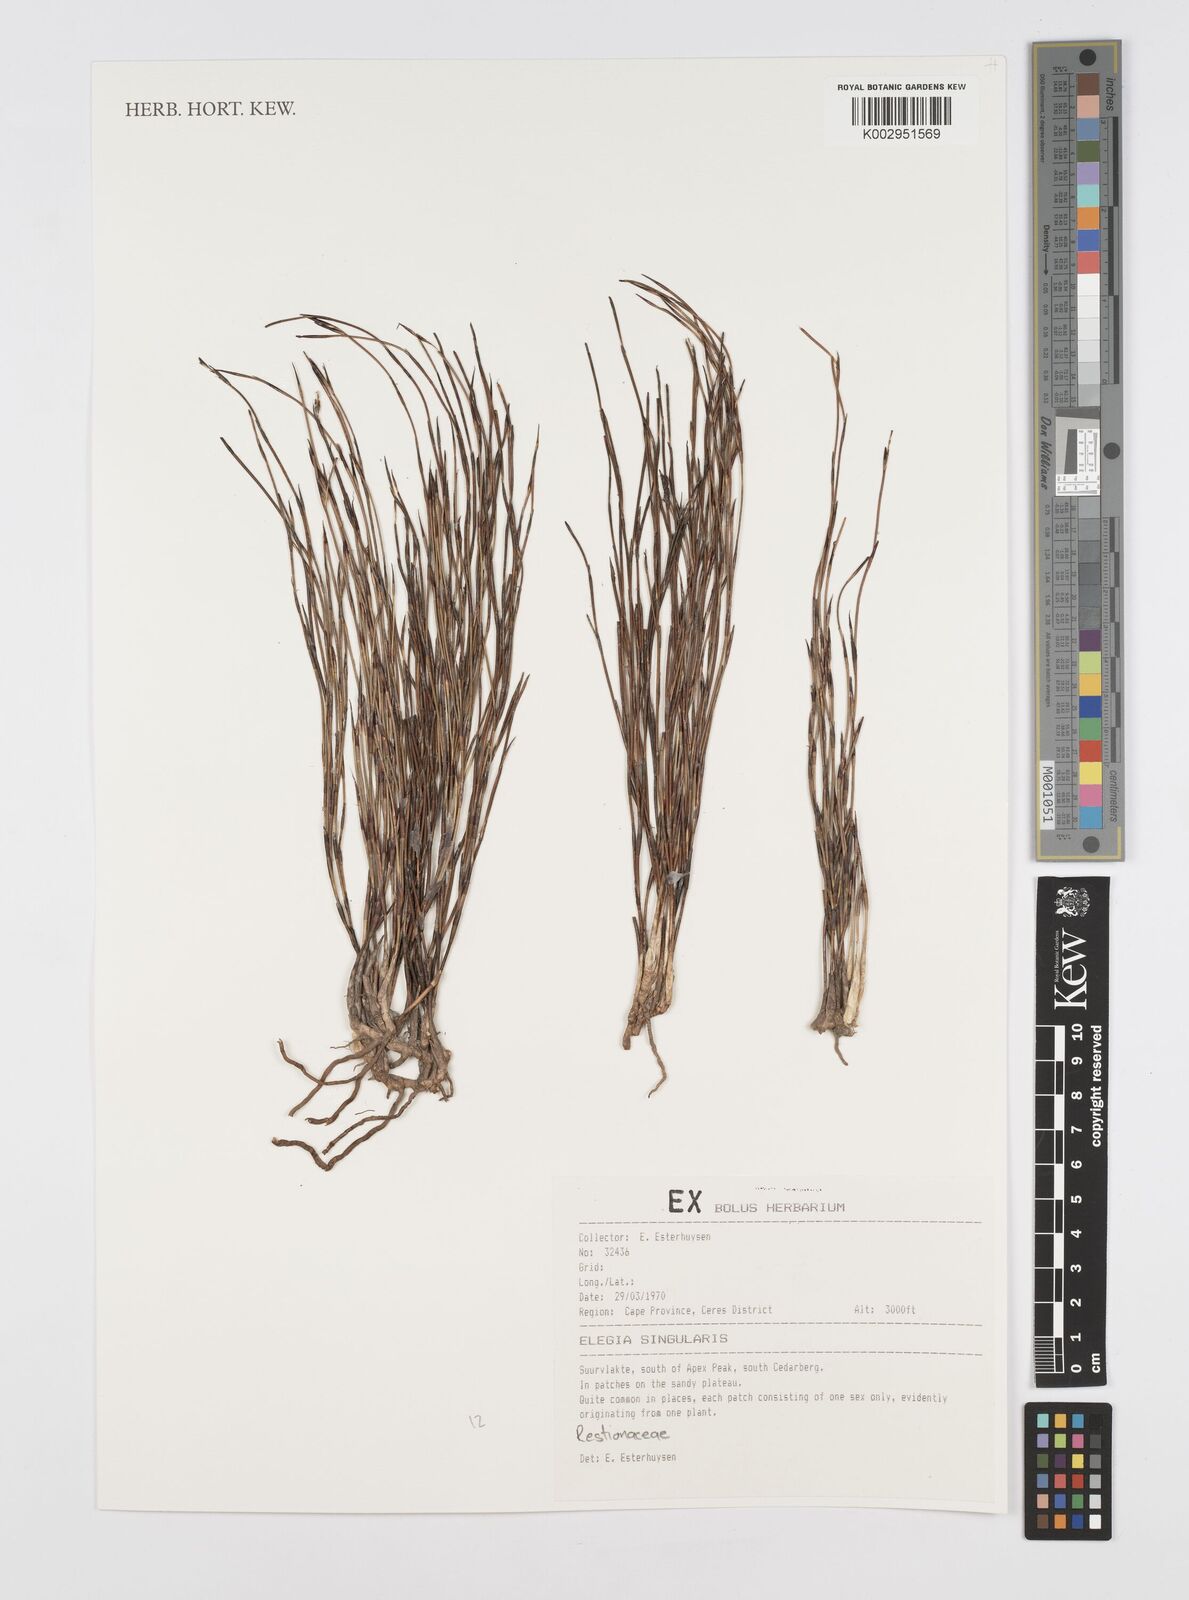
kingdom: Plantae
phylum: Tracheophyta
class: Liliopsida
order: Poales
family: Restionaceae
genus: Restio
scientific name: Restio singularis
